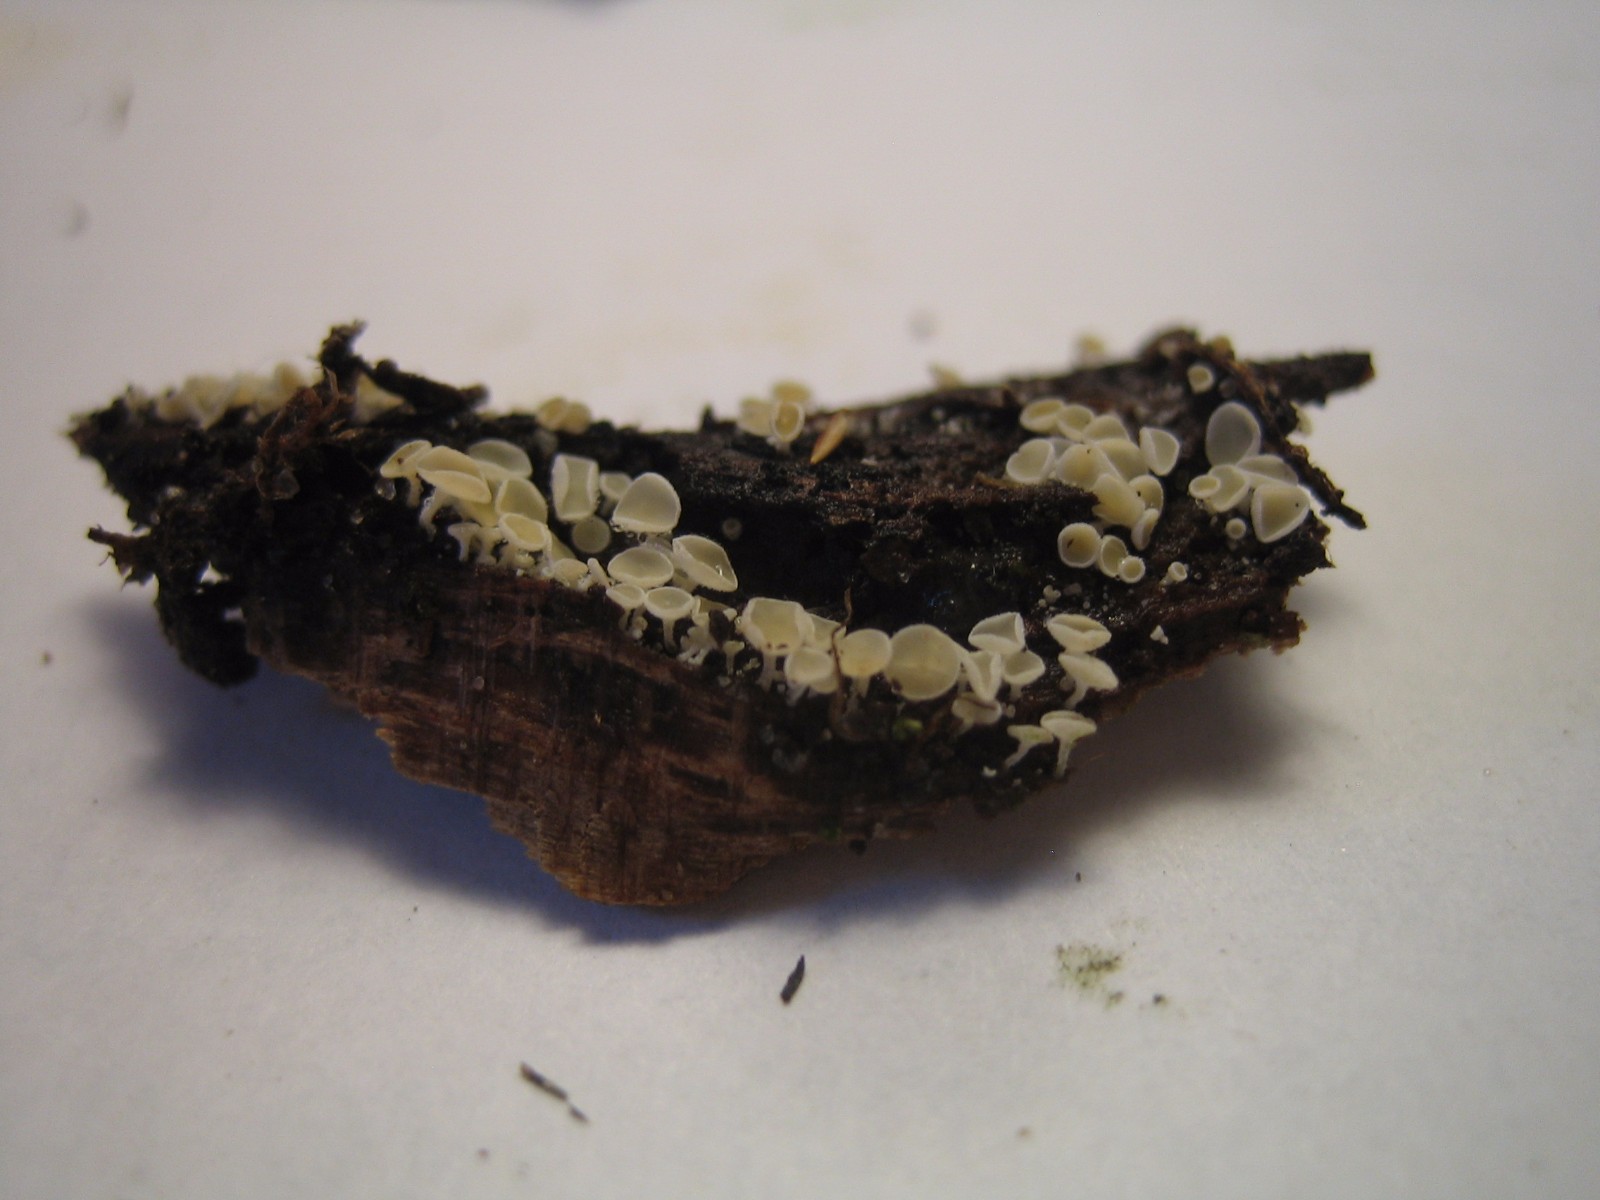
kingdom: Fungi
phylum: Ascomycota
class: Leotiomycetes
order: Helotiales
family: Lachnaceae
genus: Lachnum
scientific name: Lachnum
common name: frynseskive
